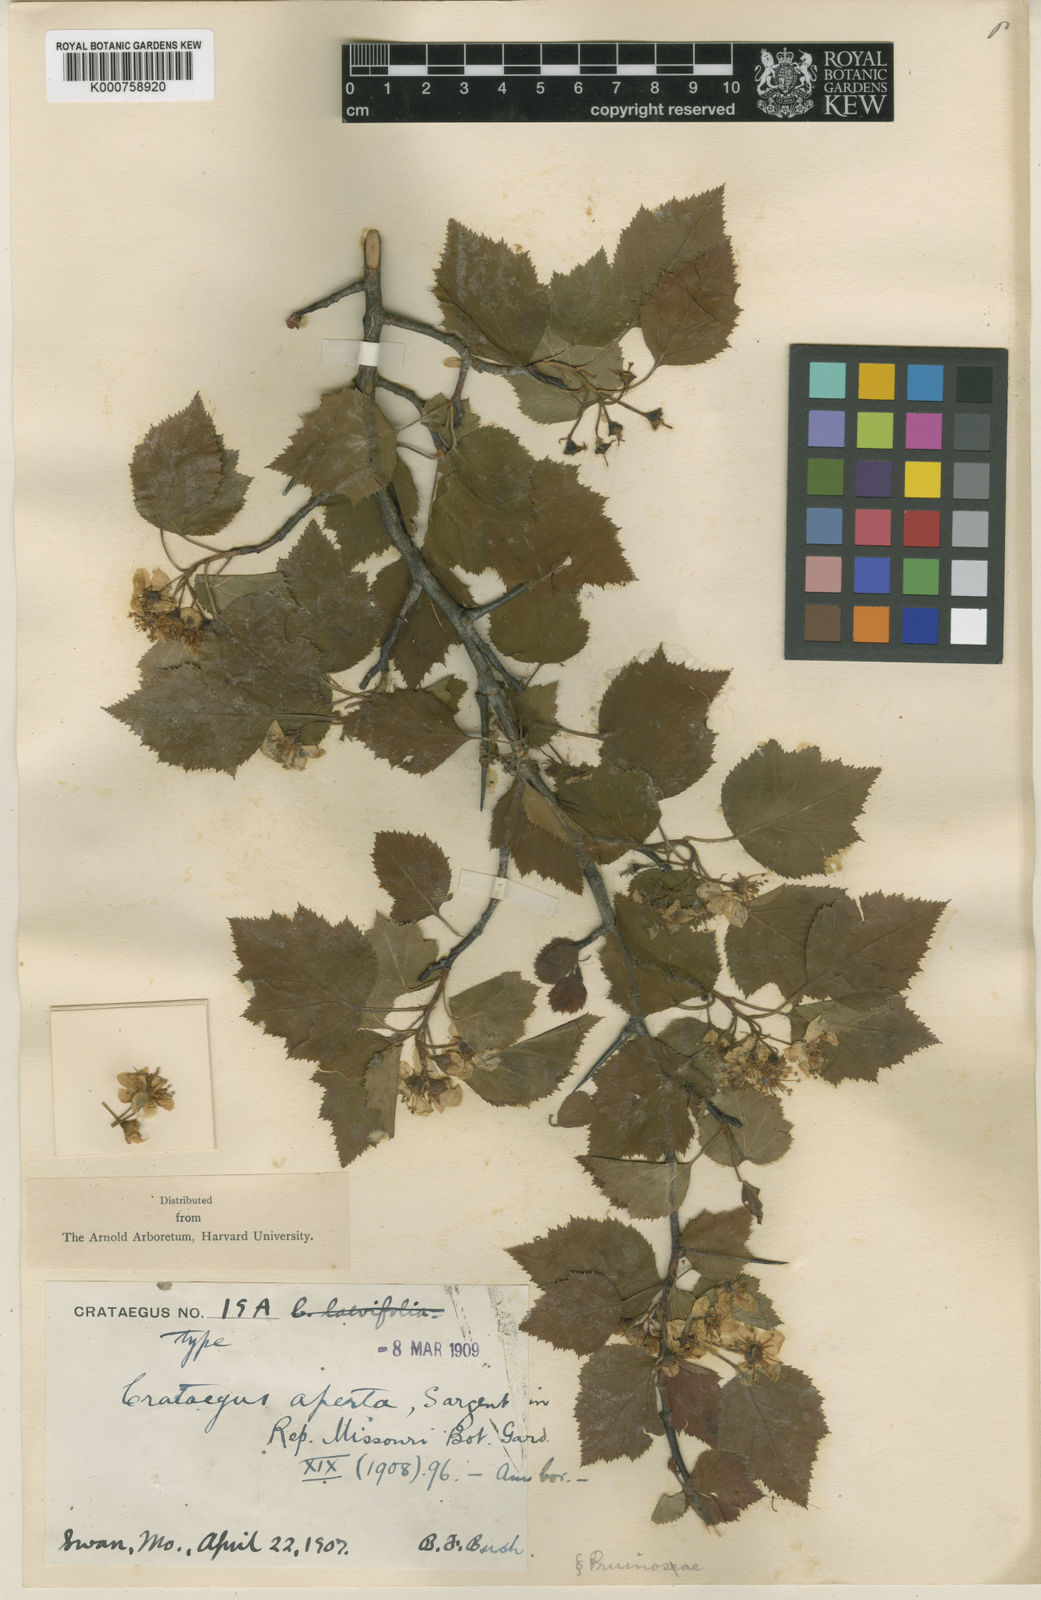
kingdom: Plantae
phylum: Tracheophyta
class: Magnoliopsida
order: Rosales
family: Rosaceae
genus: Crataegus
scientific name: Crataegus aperta
